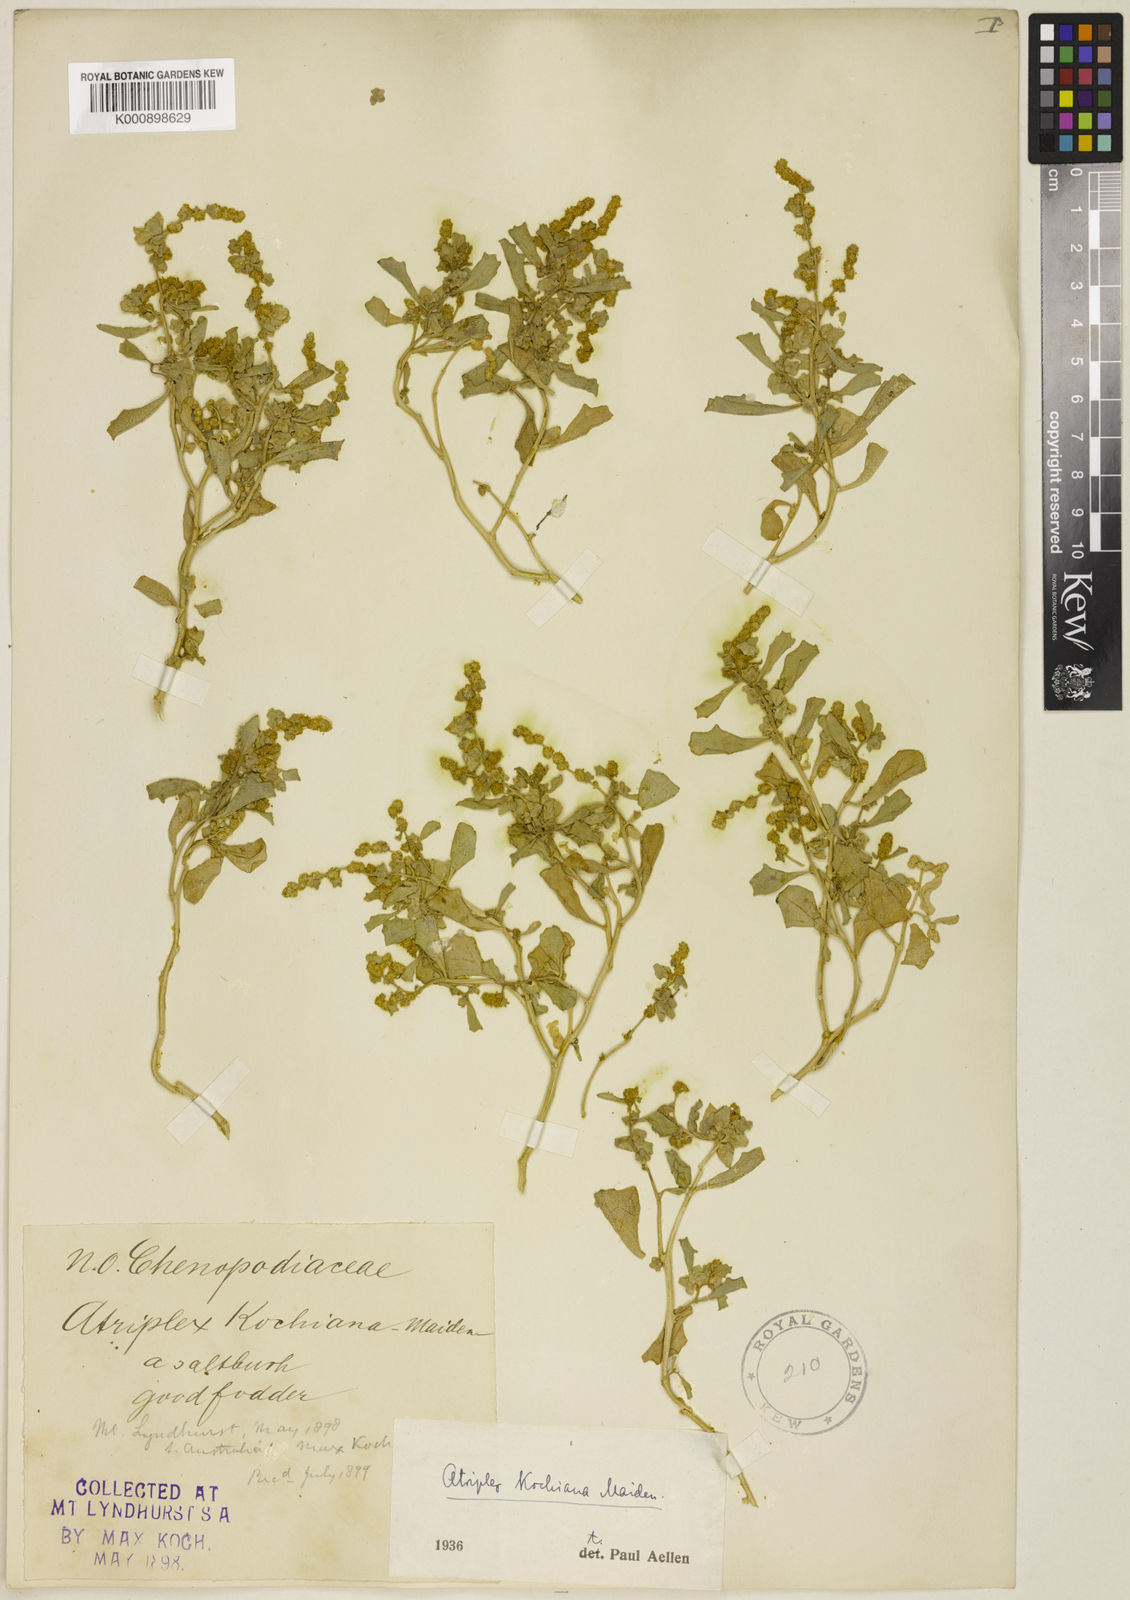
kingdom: Plantae
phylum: Tracheophyta
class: Magnoliopsida
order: Caryophyllales
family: Amaranthaceae
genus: Atriplex
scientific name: Atriplex kochiana
